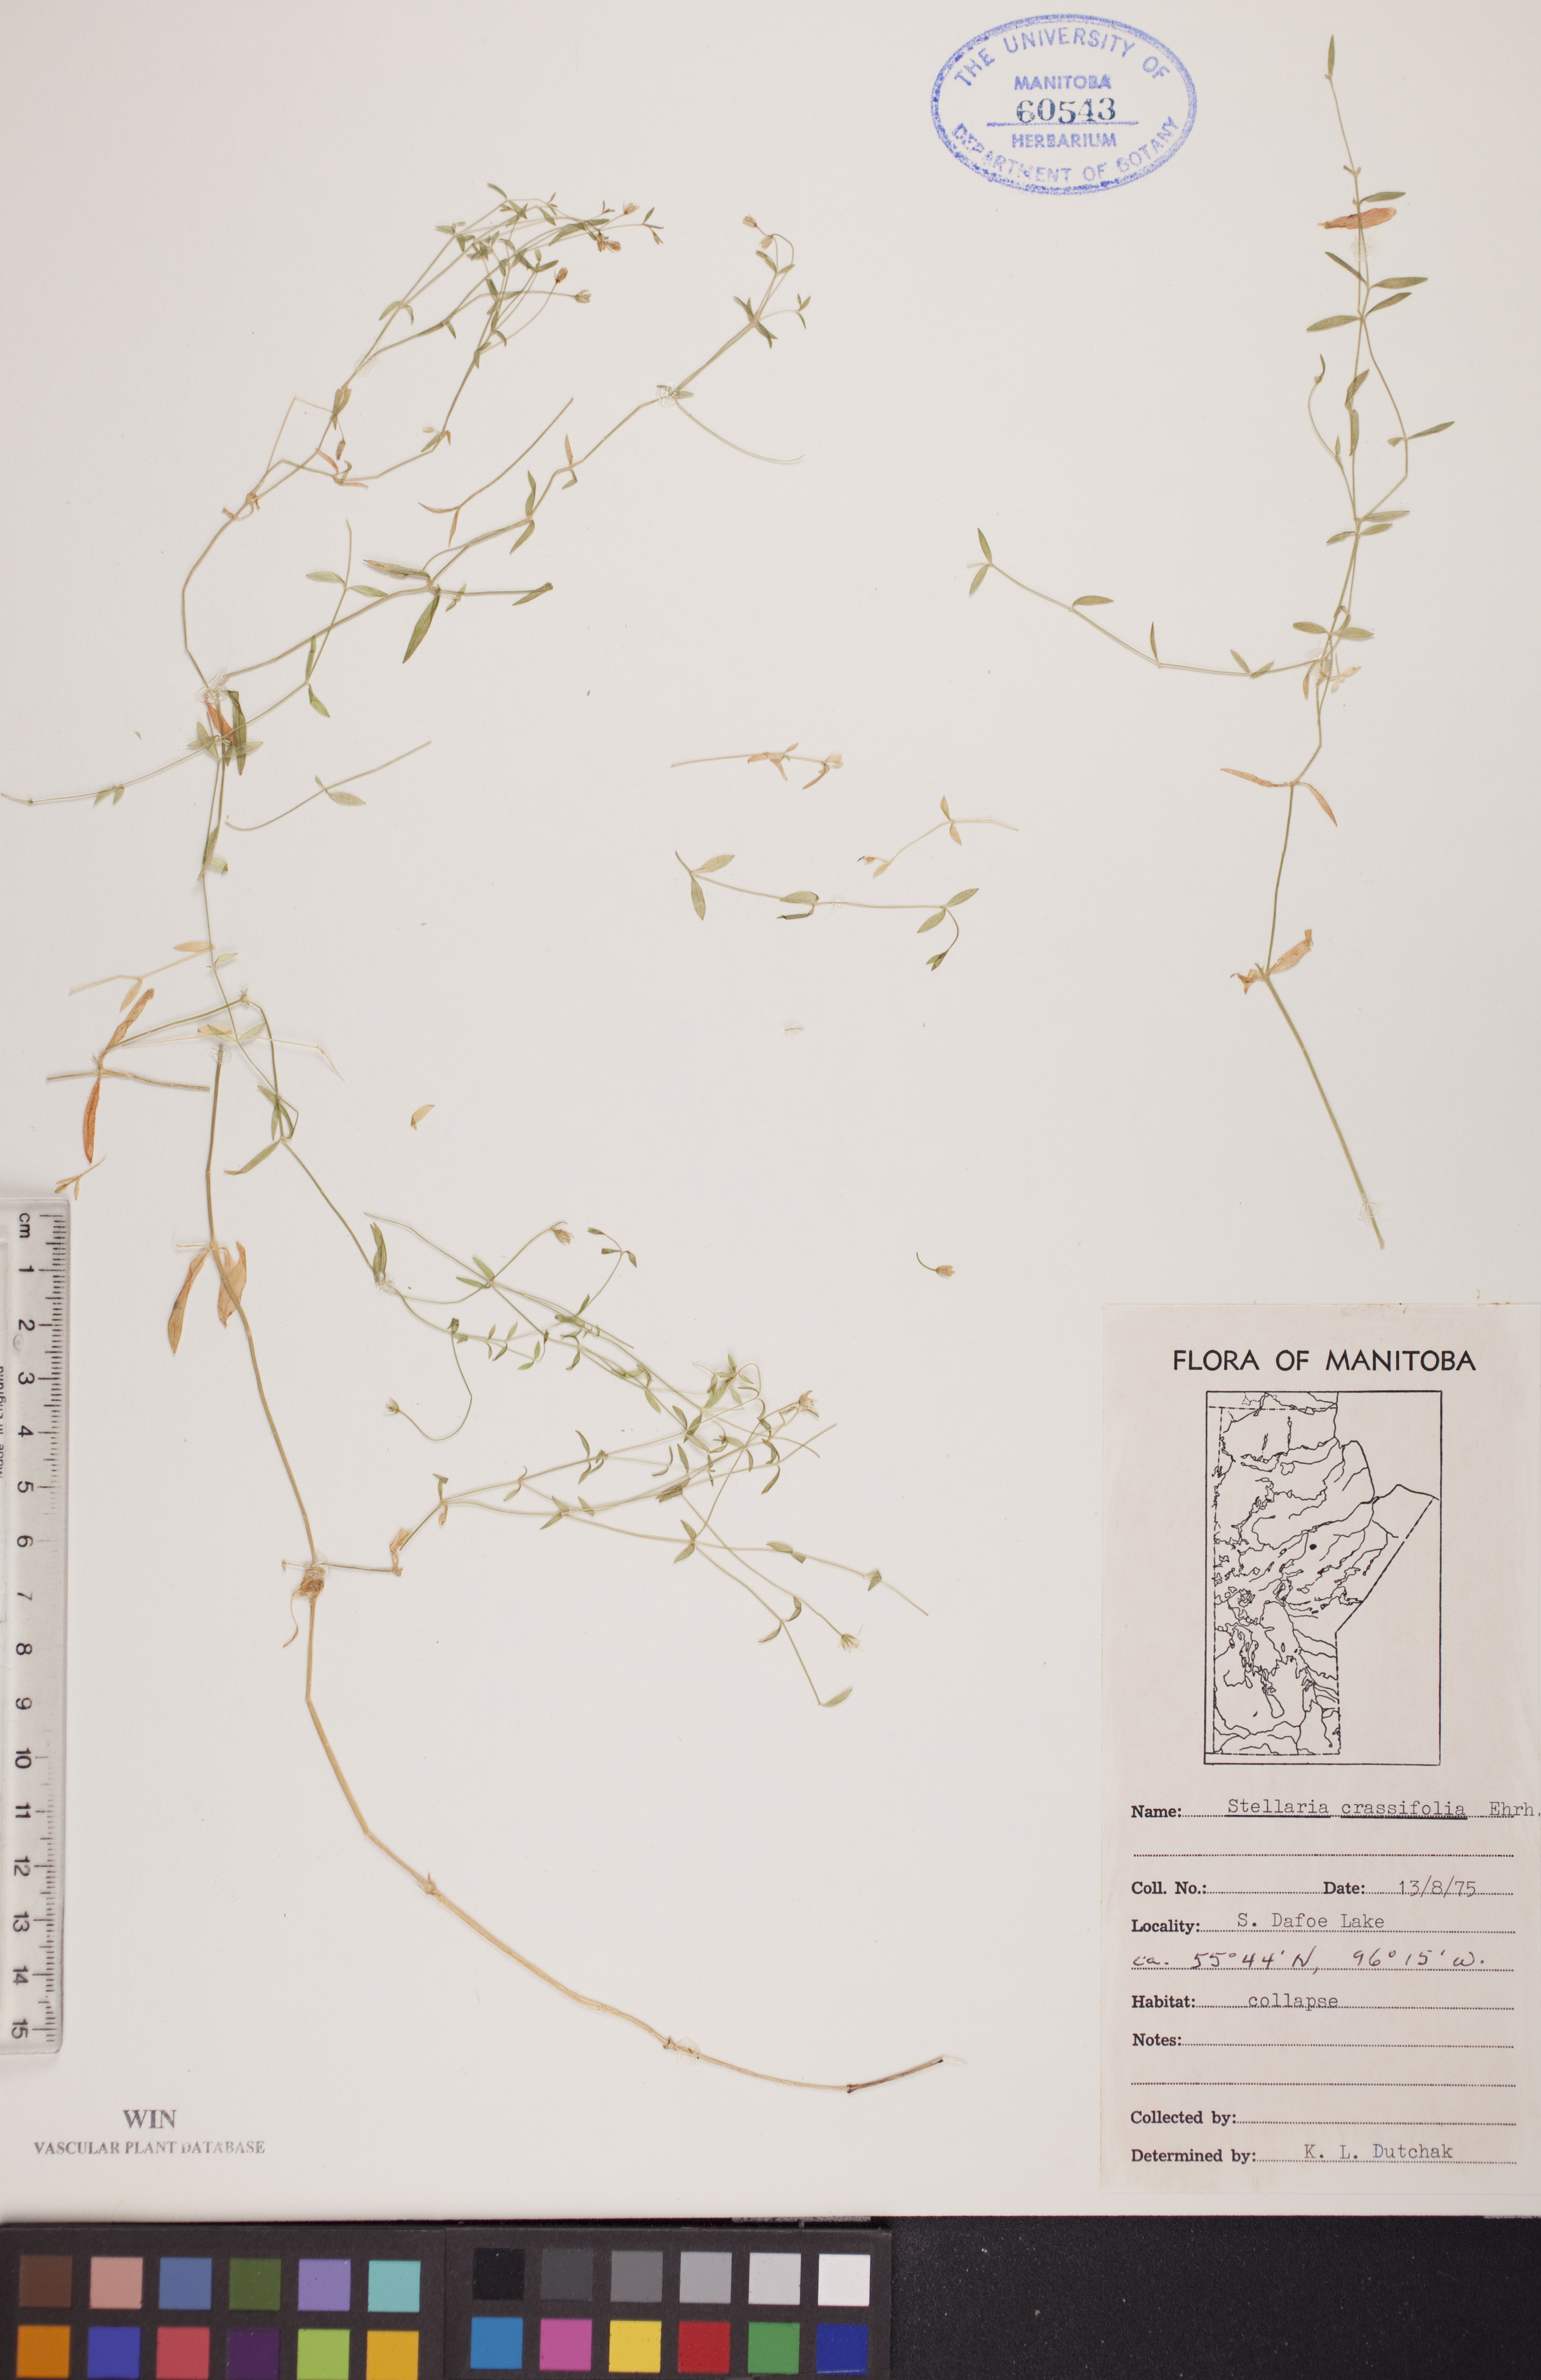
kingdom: Plantae
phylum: Tracheophyta
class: Magnoliopsida
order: Caryophyllales
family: Caryophyllaceae
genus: Stellaria
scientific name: Stellaria crassifolia
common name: Fleshy starwort
